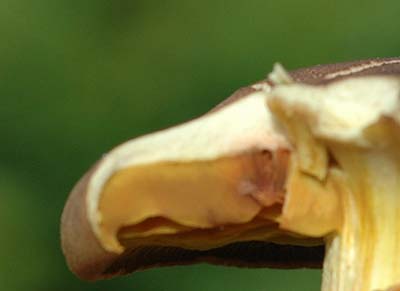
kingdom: Fungi
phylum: Basidiomycota
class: Agaricomycetes
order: Agaricales
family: Cortinariaceae
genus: Cortinarius
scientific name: Cortinarius
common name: gulbladet slørhat
